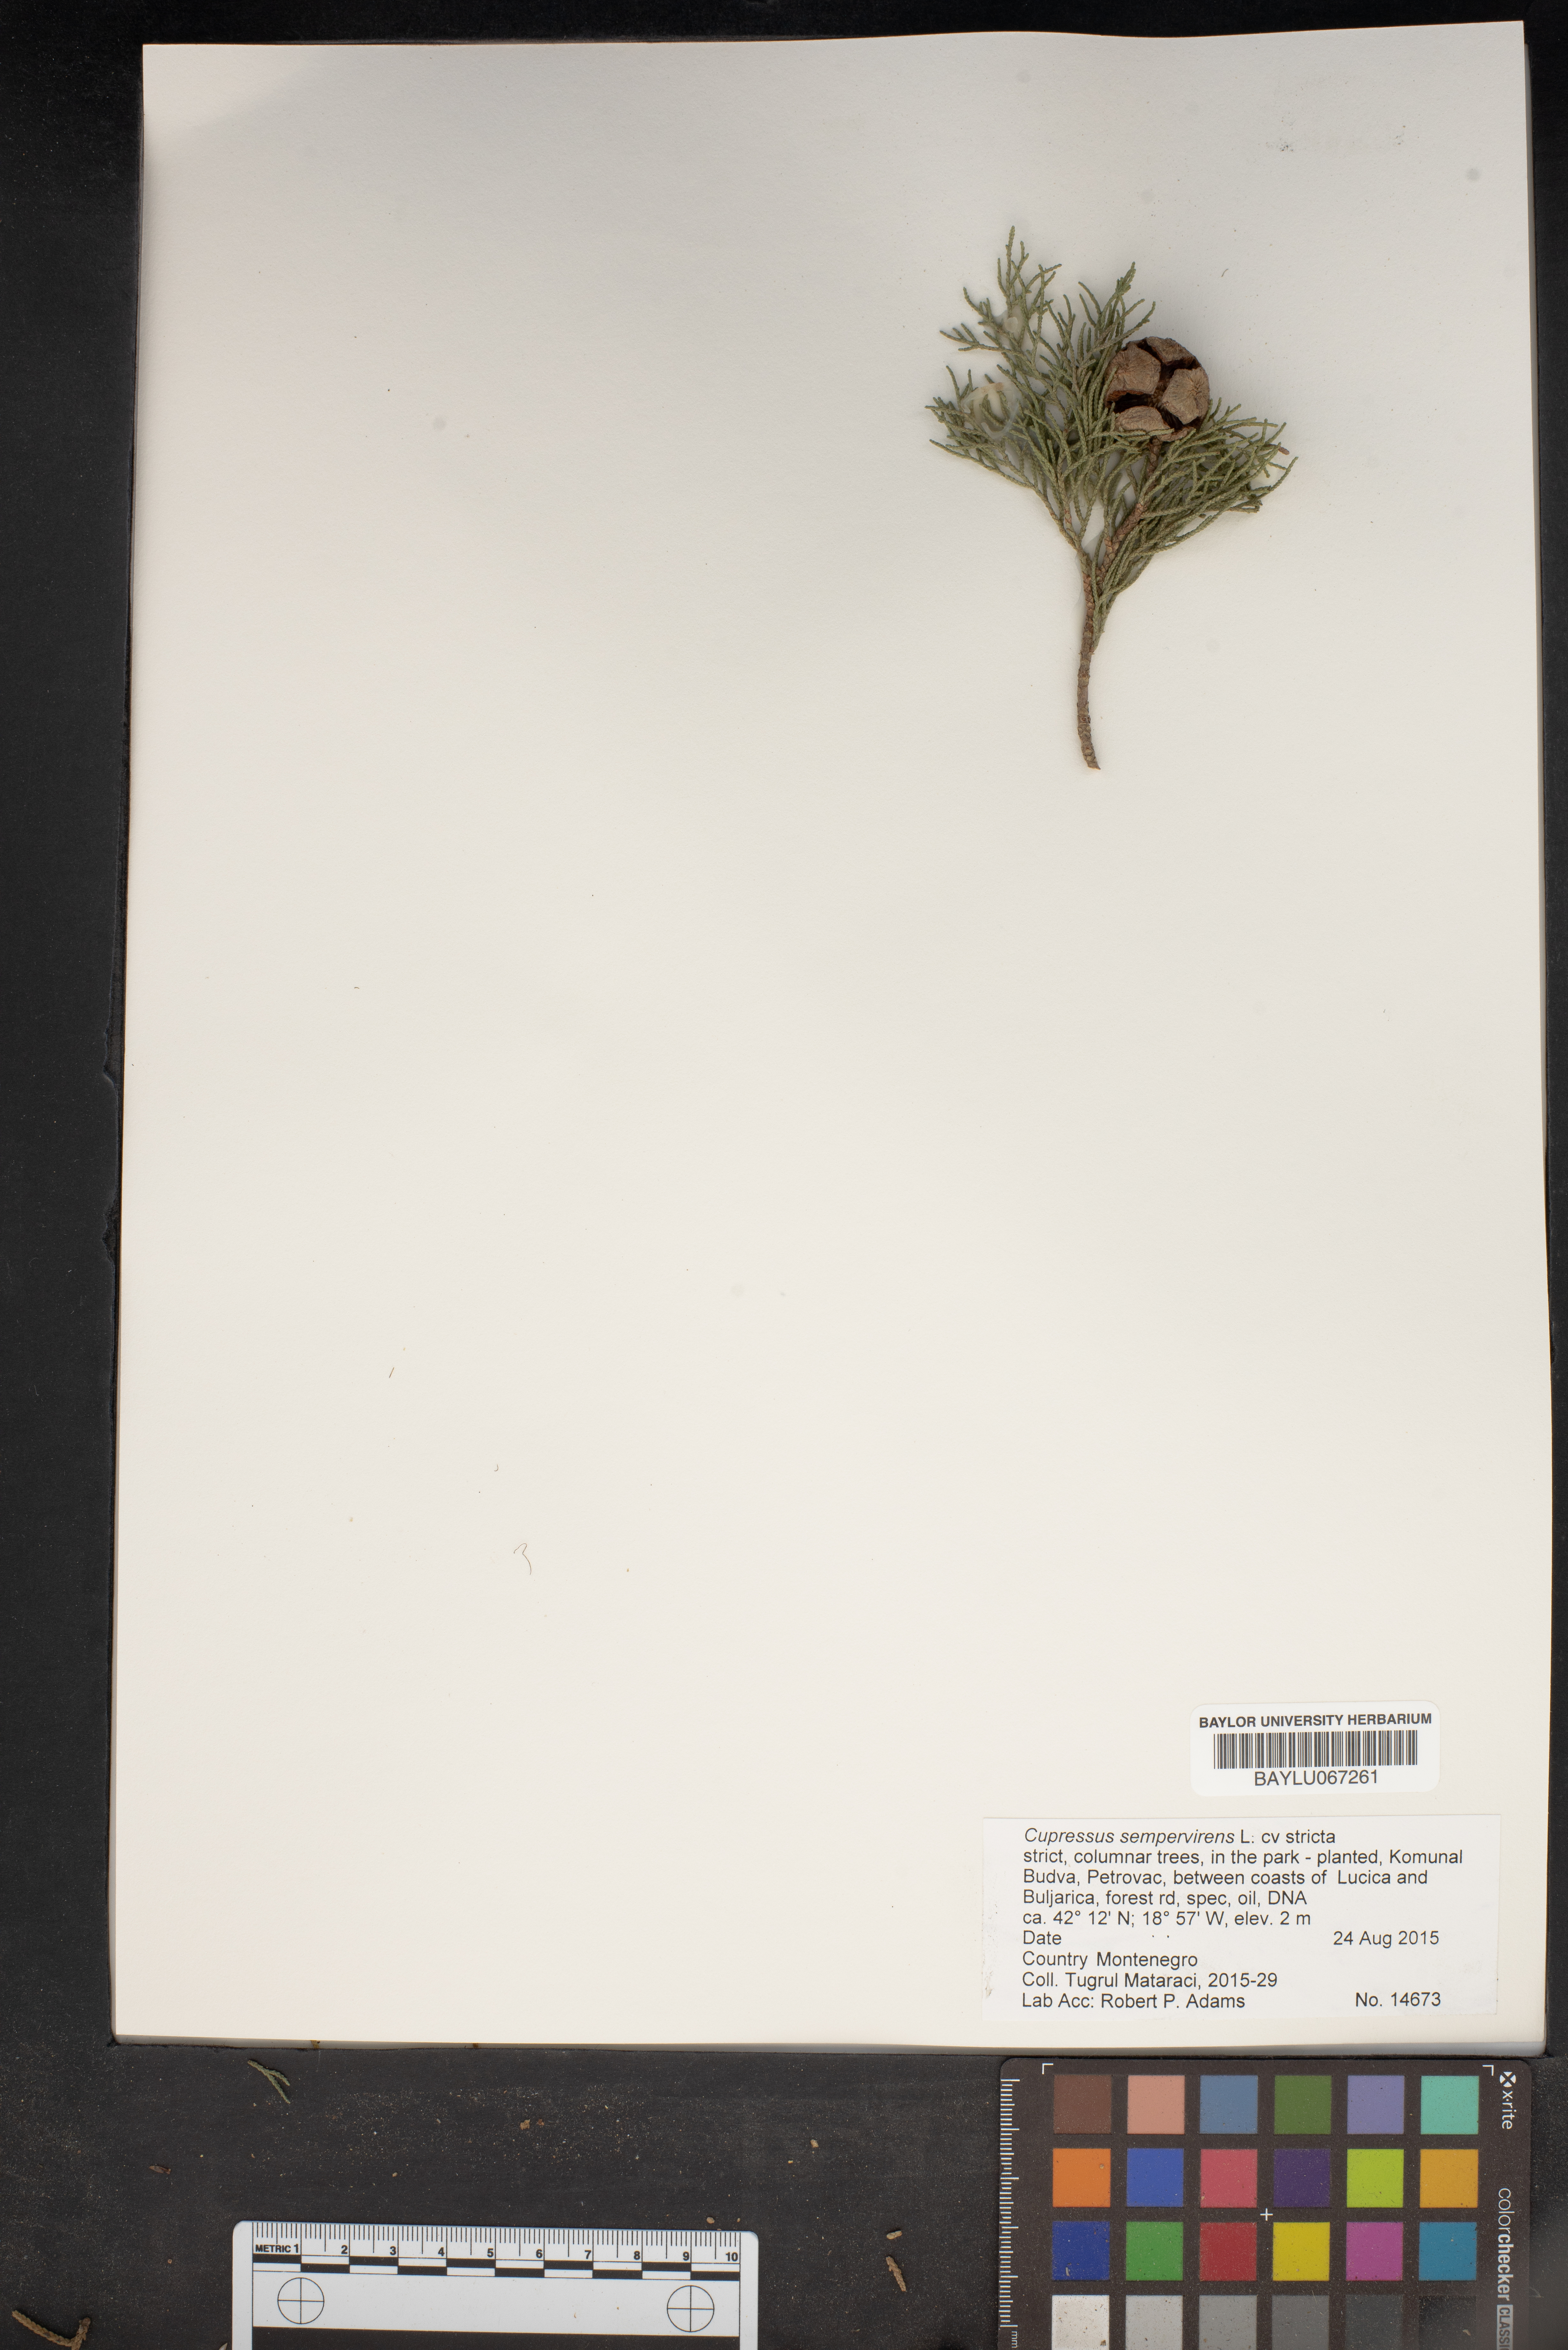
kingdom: Plantae
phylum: Tracheophyta
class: Pinopsida
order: Pinales
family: Cupressaceae
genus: Cupressus
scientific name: Cupressus sempervirens
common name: Italian cypress
